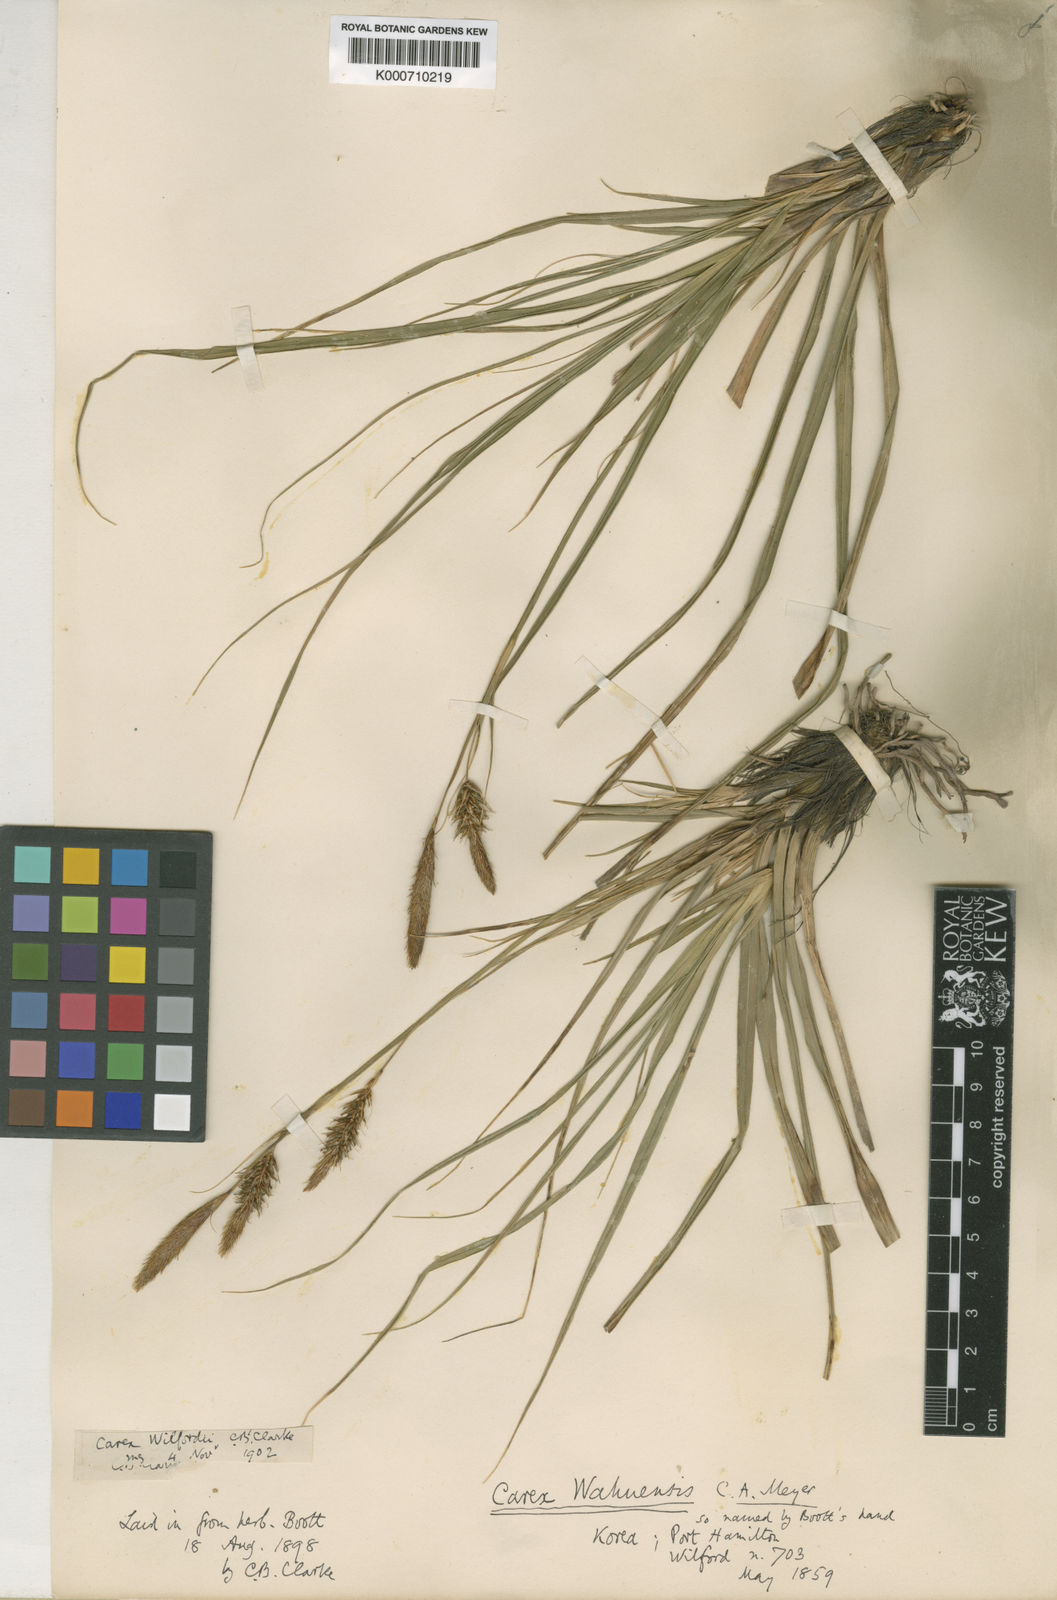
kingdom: Plantae
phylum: Tracheophyta
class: Liliopsida
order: Poales
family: Cyperaceae
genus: Carex
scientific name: Carex wahuensis
